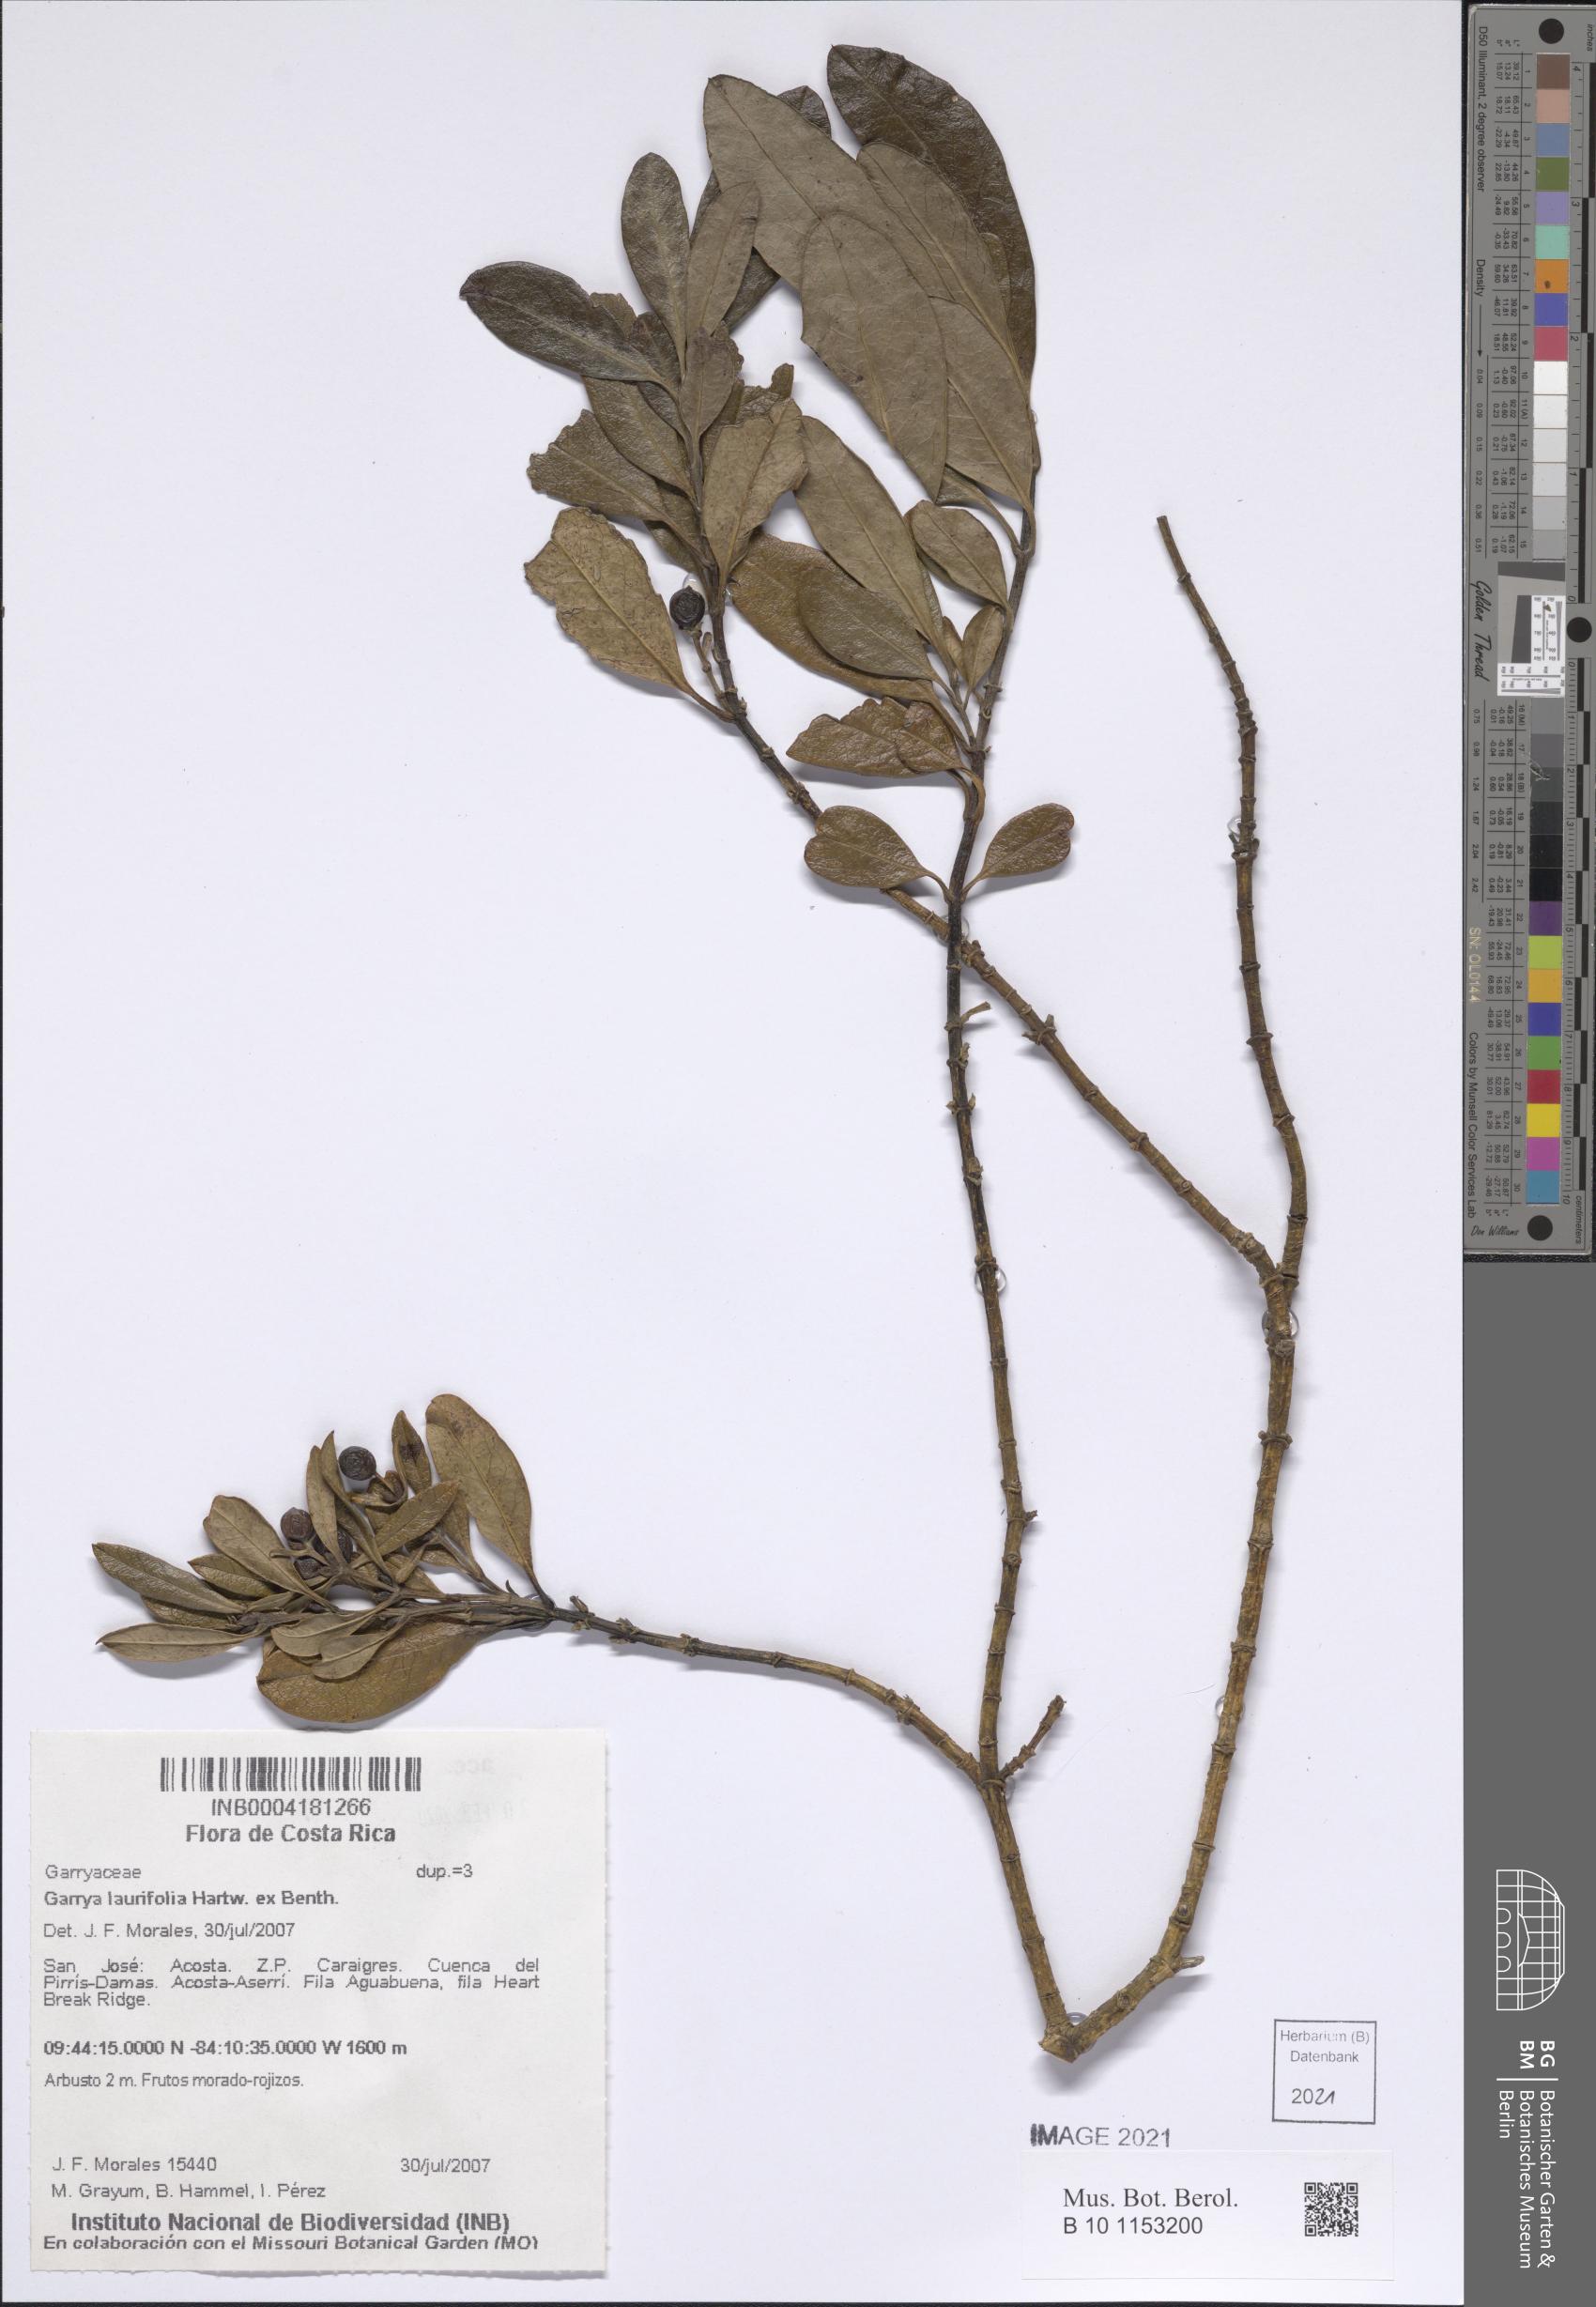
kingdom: Plantae
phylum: Tracheophyta
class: Magnoliopsida
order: Garryales
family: Garryaceae
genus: Garrya
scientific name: Garrya laurifolia
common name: Cuachichic
